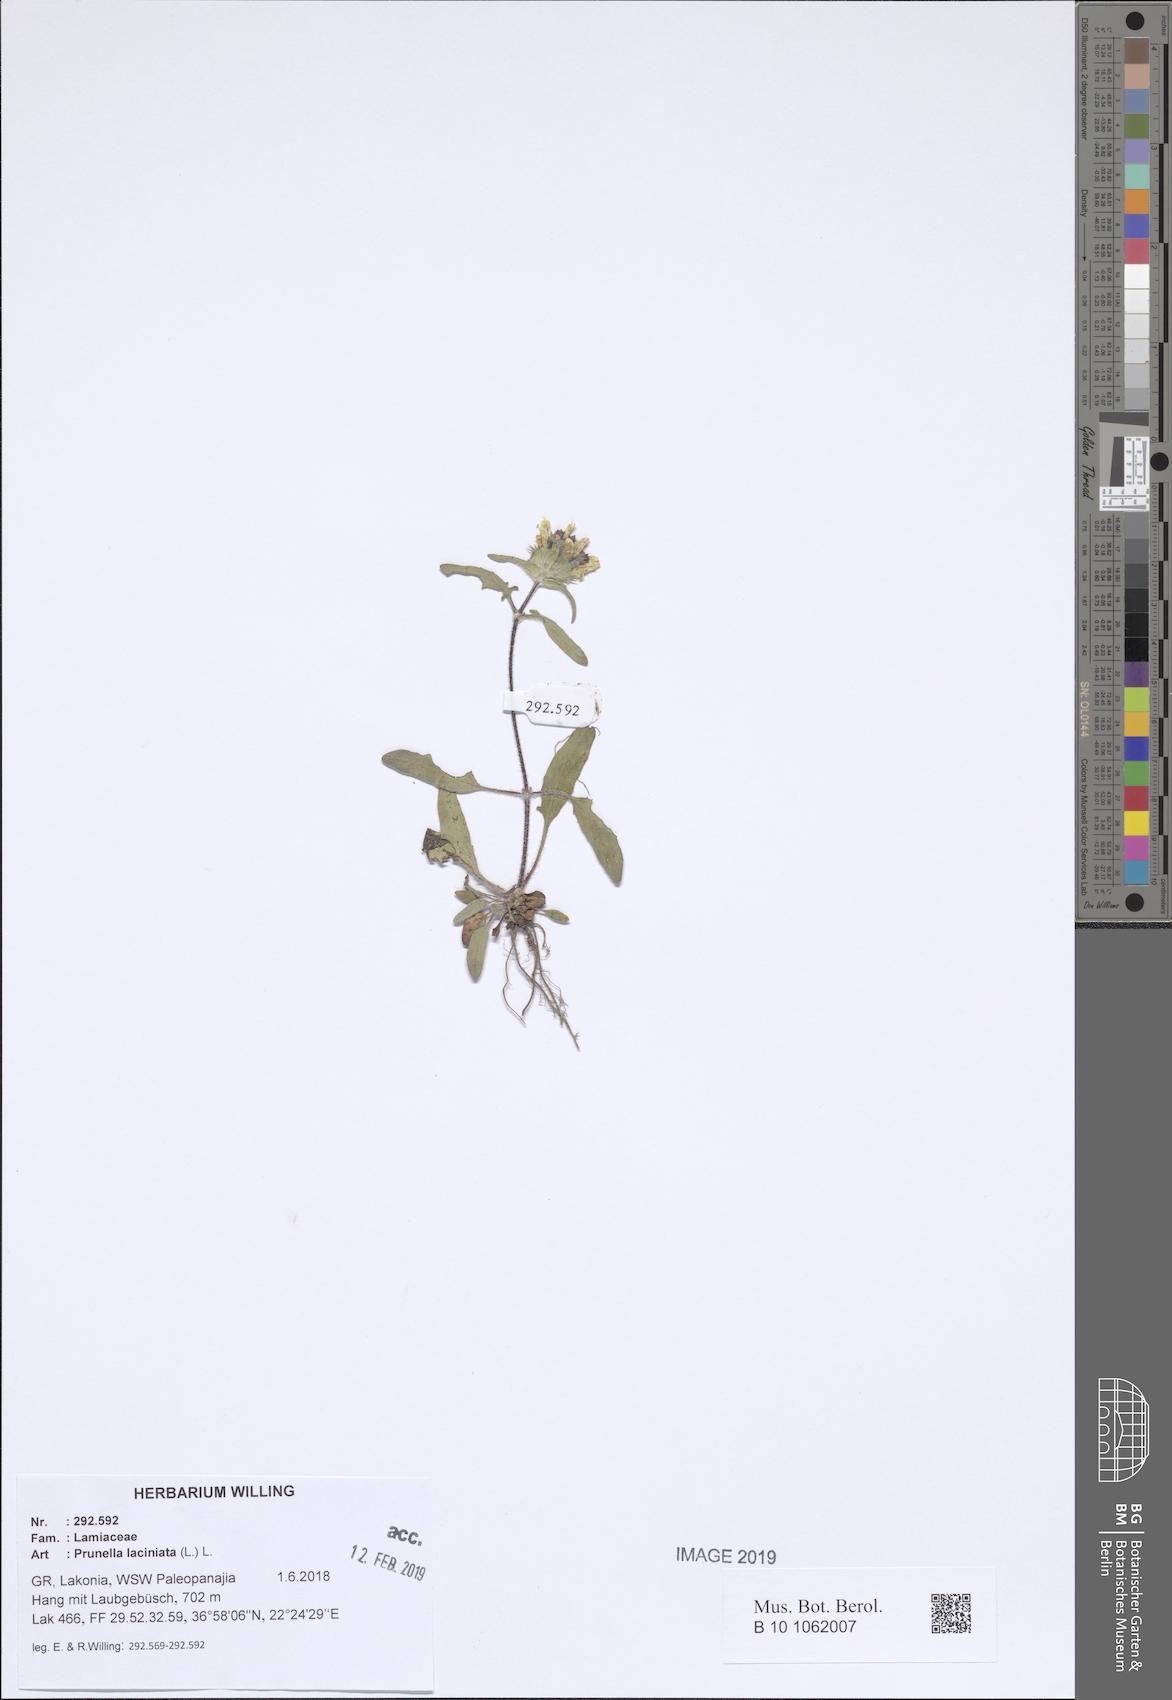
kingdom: Plantae
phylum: Tracheophyta
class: Magnoliopsida
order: Lamiales
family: Lamiaceae
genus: Prunella
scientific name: Prunella laciniata
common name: Cut-leaved selfheal
